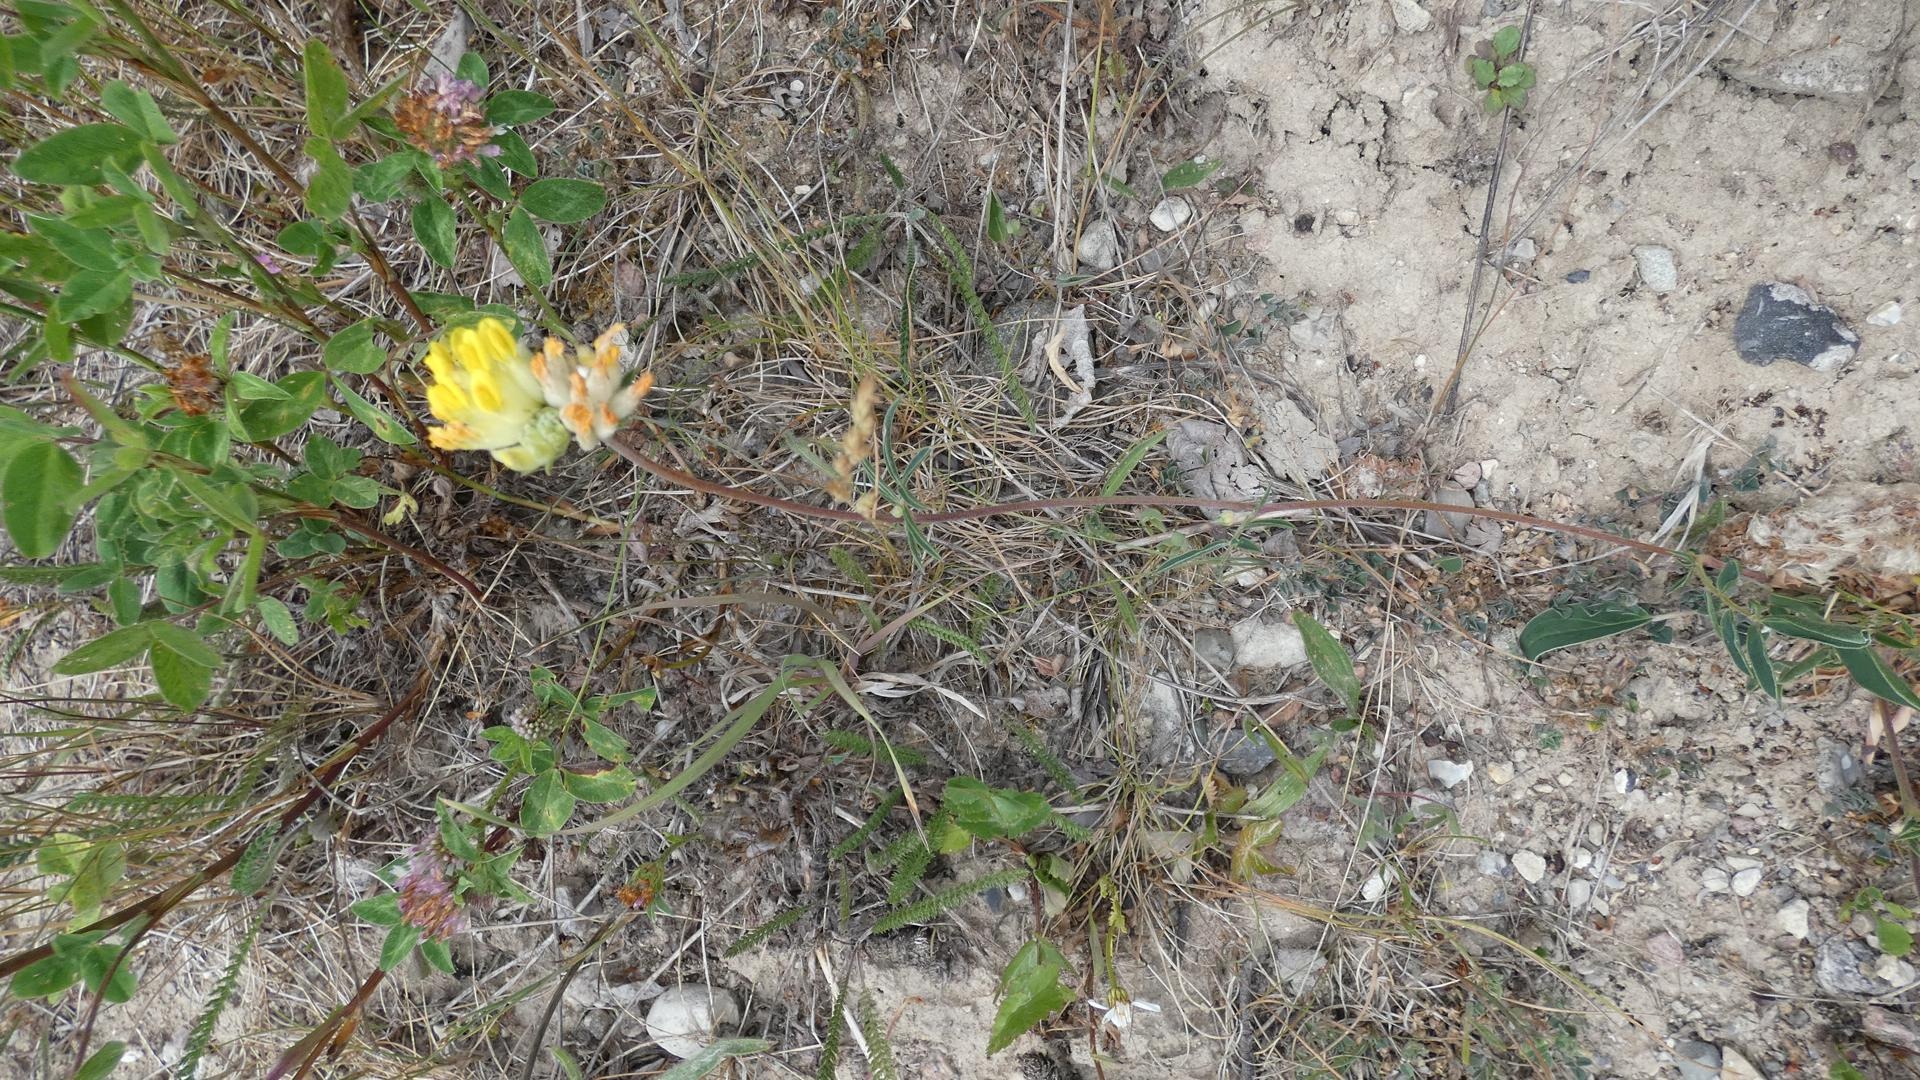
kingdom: Plantae
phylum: Tracheophyta
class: Magnoliopsida
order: Fabales
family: Fabaceae
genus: Anthyllis
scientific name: Anthyllis vulneraria
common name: Rundbælg
